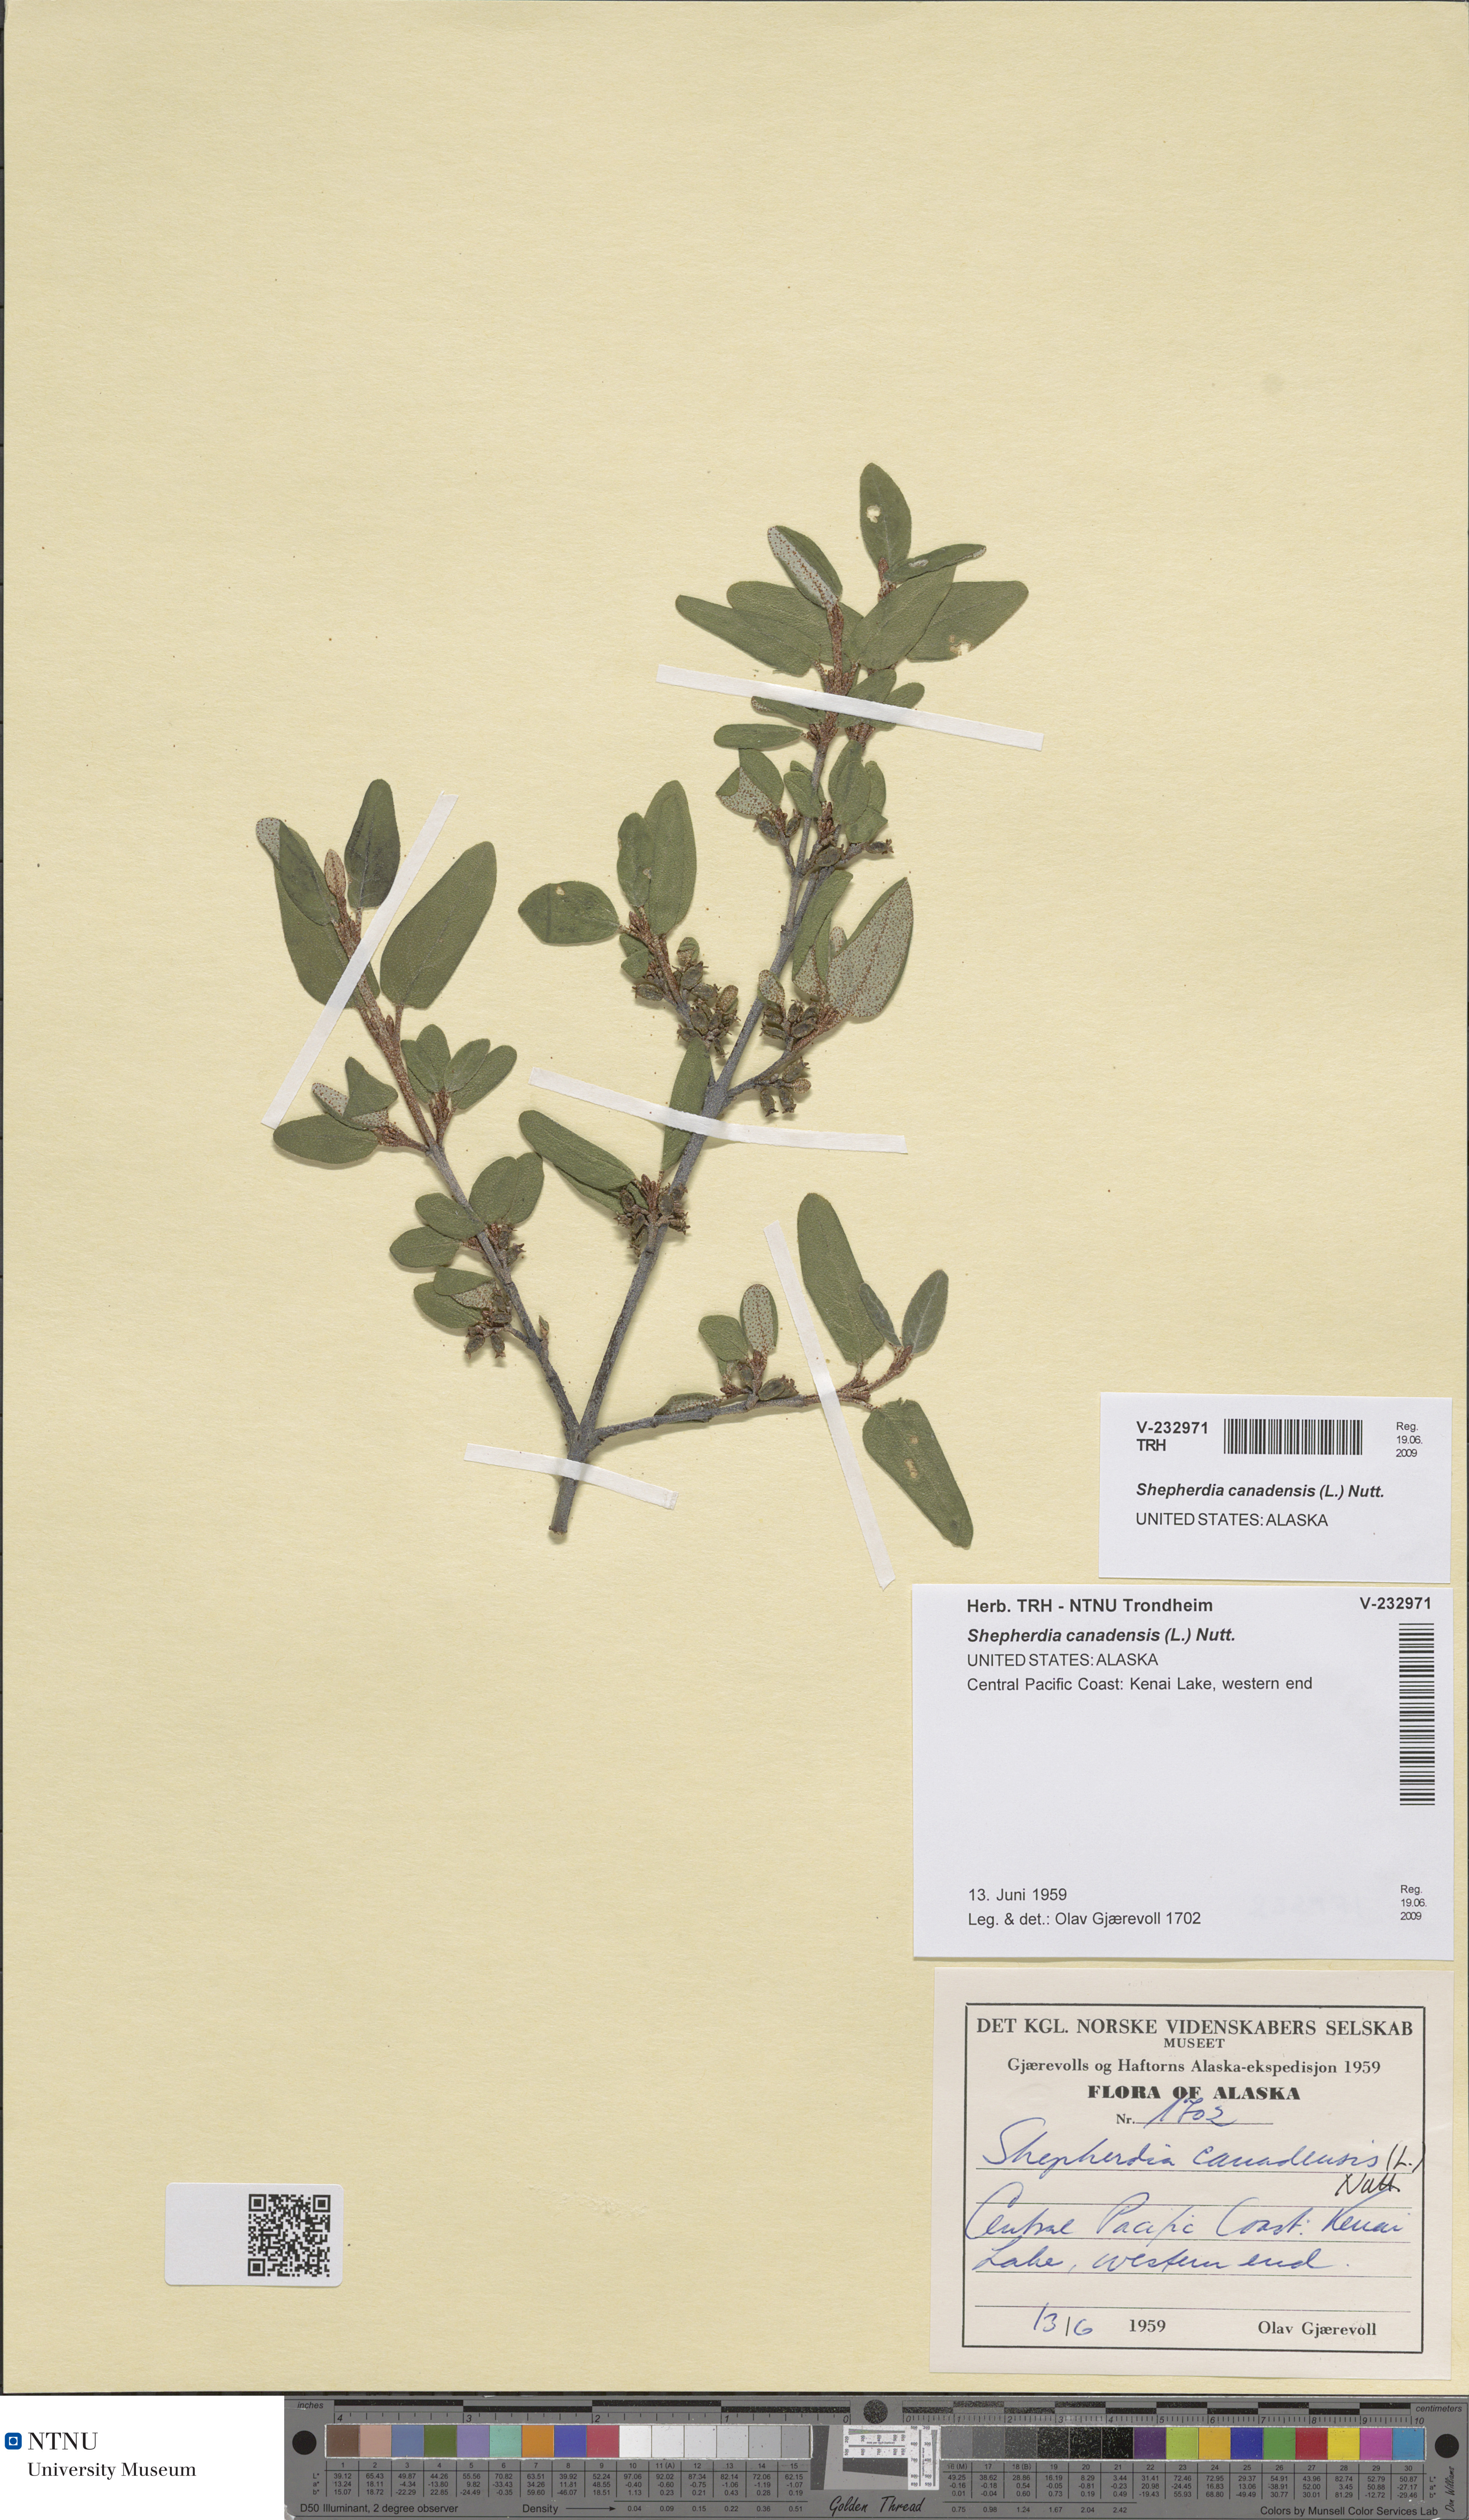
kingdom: Plantae
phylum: Tracheophyta
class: Magnoliopsida
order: Rosales
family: Elaeagnaceae
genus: Shepherdia
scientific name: Shepherdia canadensis
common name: Soapberry
